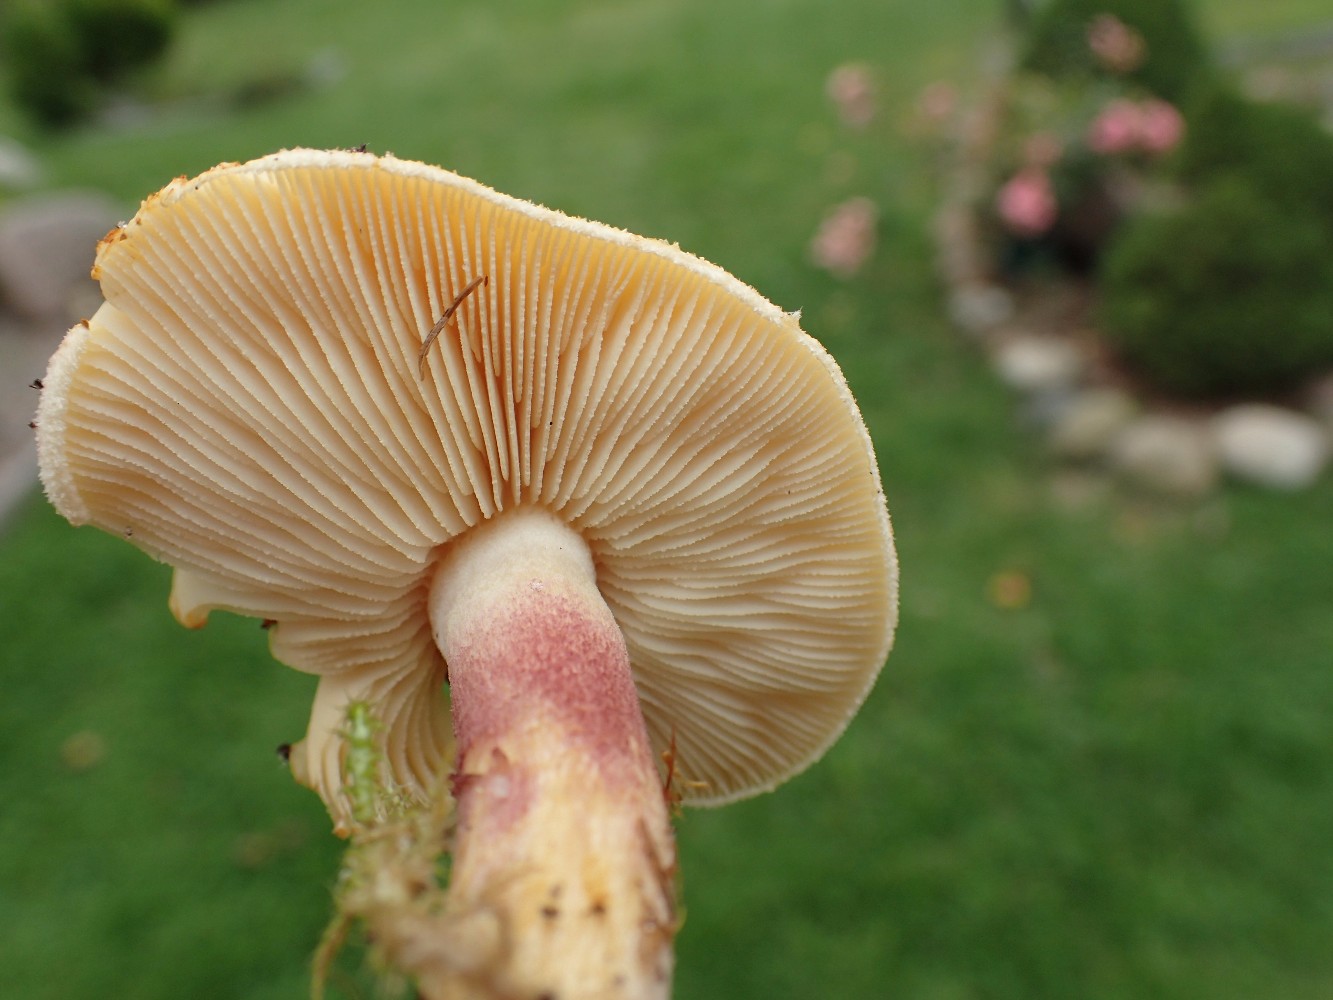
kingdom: Fungi
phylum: Basidiomycota
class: Agaricomycetes
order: Agaricales
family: Tricholomataceae
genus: Tricholomopsis
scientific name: Tricholomopsis rutilans
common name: purpur-væbnerhat
